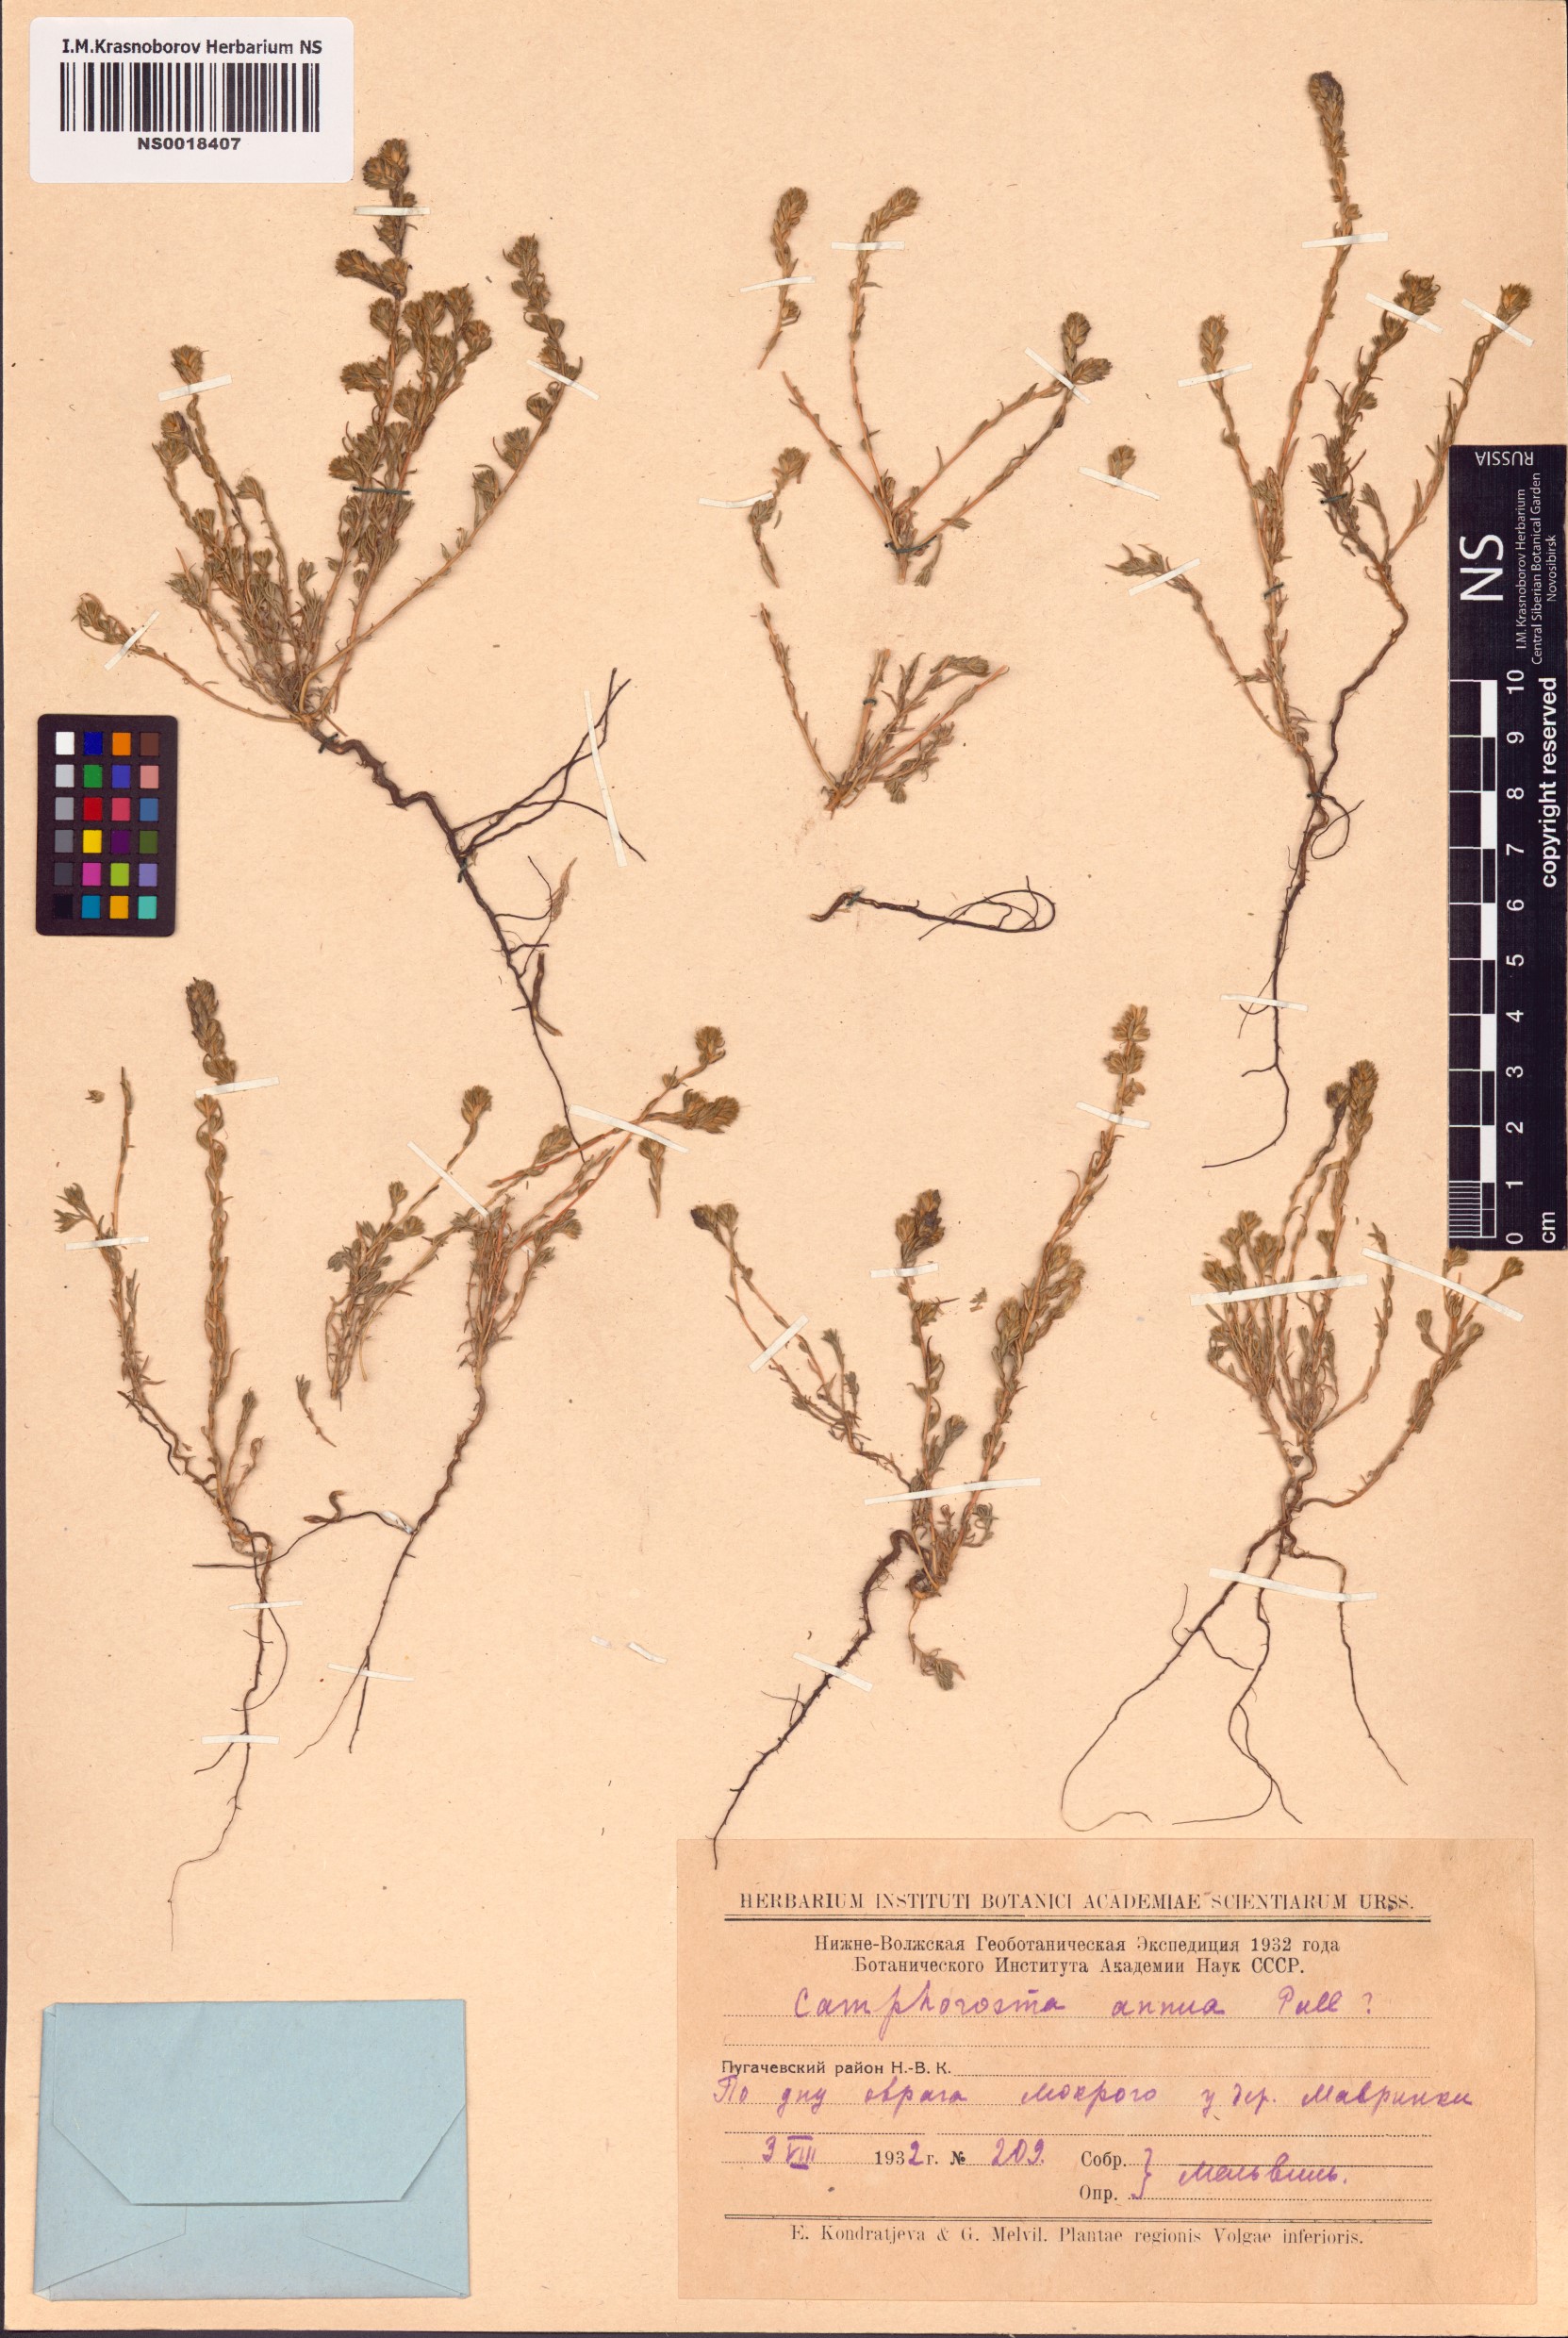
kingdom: Plantae
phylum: Tracheophyta
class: Magnoliopsida
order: Caryophyllales
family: Amaranthaceae
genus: Camphorosma
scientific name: Camphorosma annua
